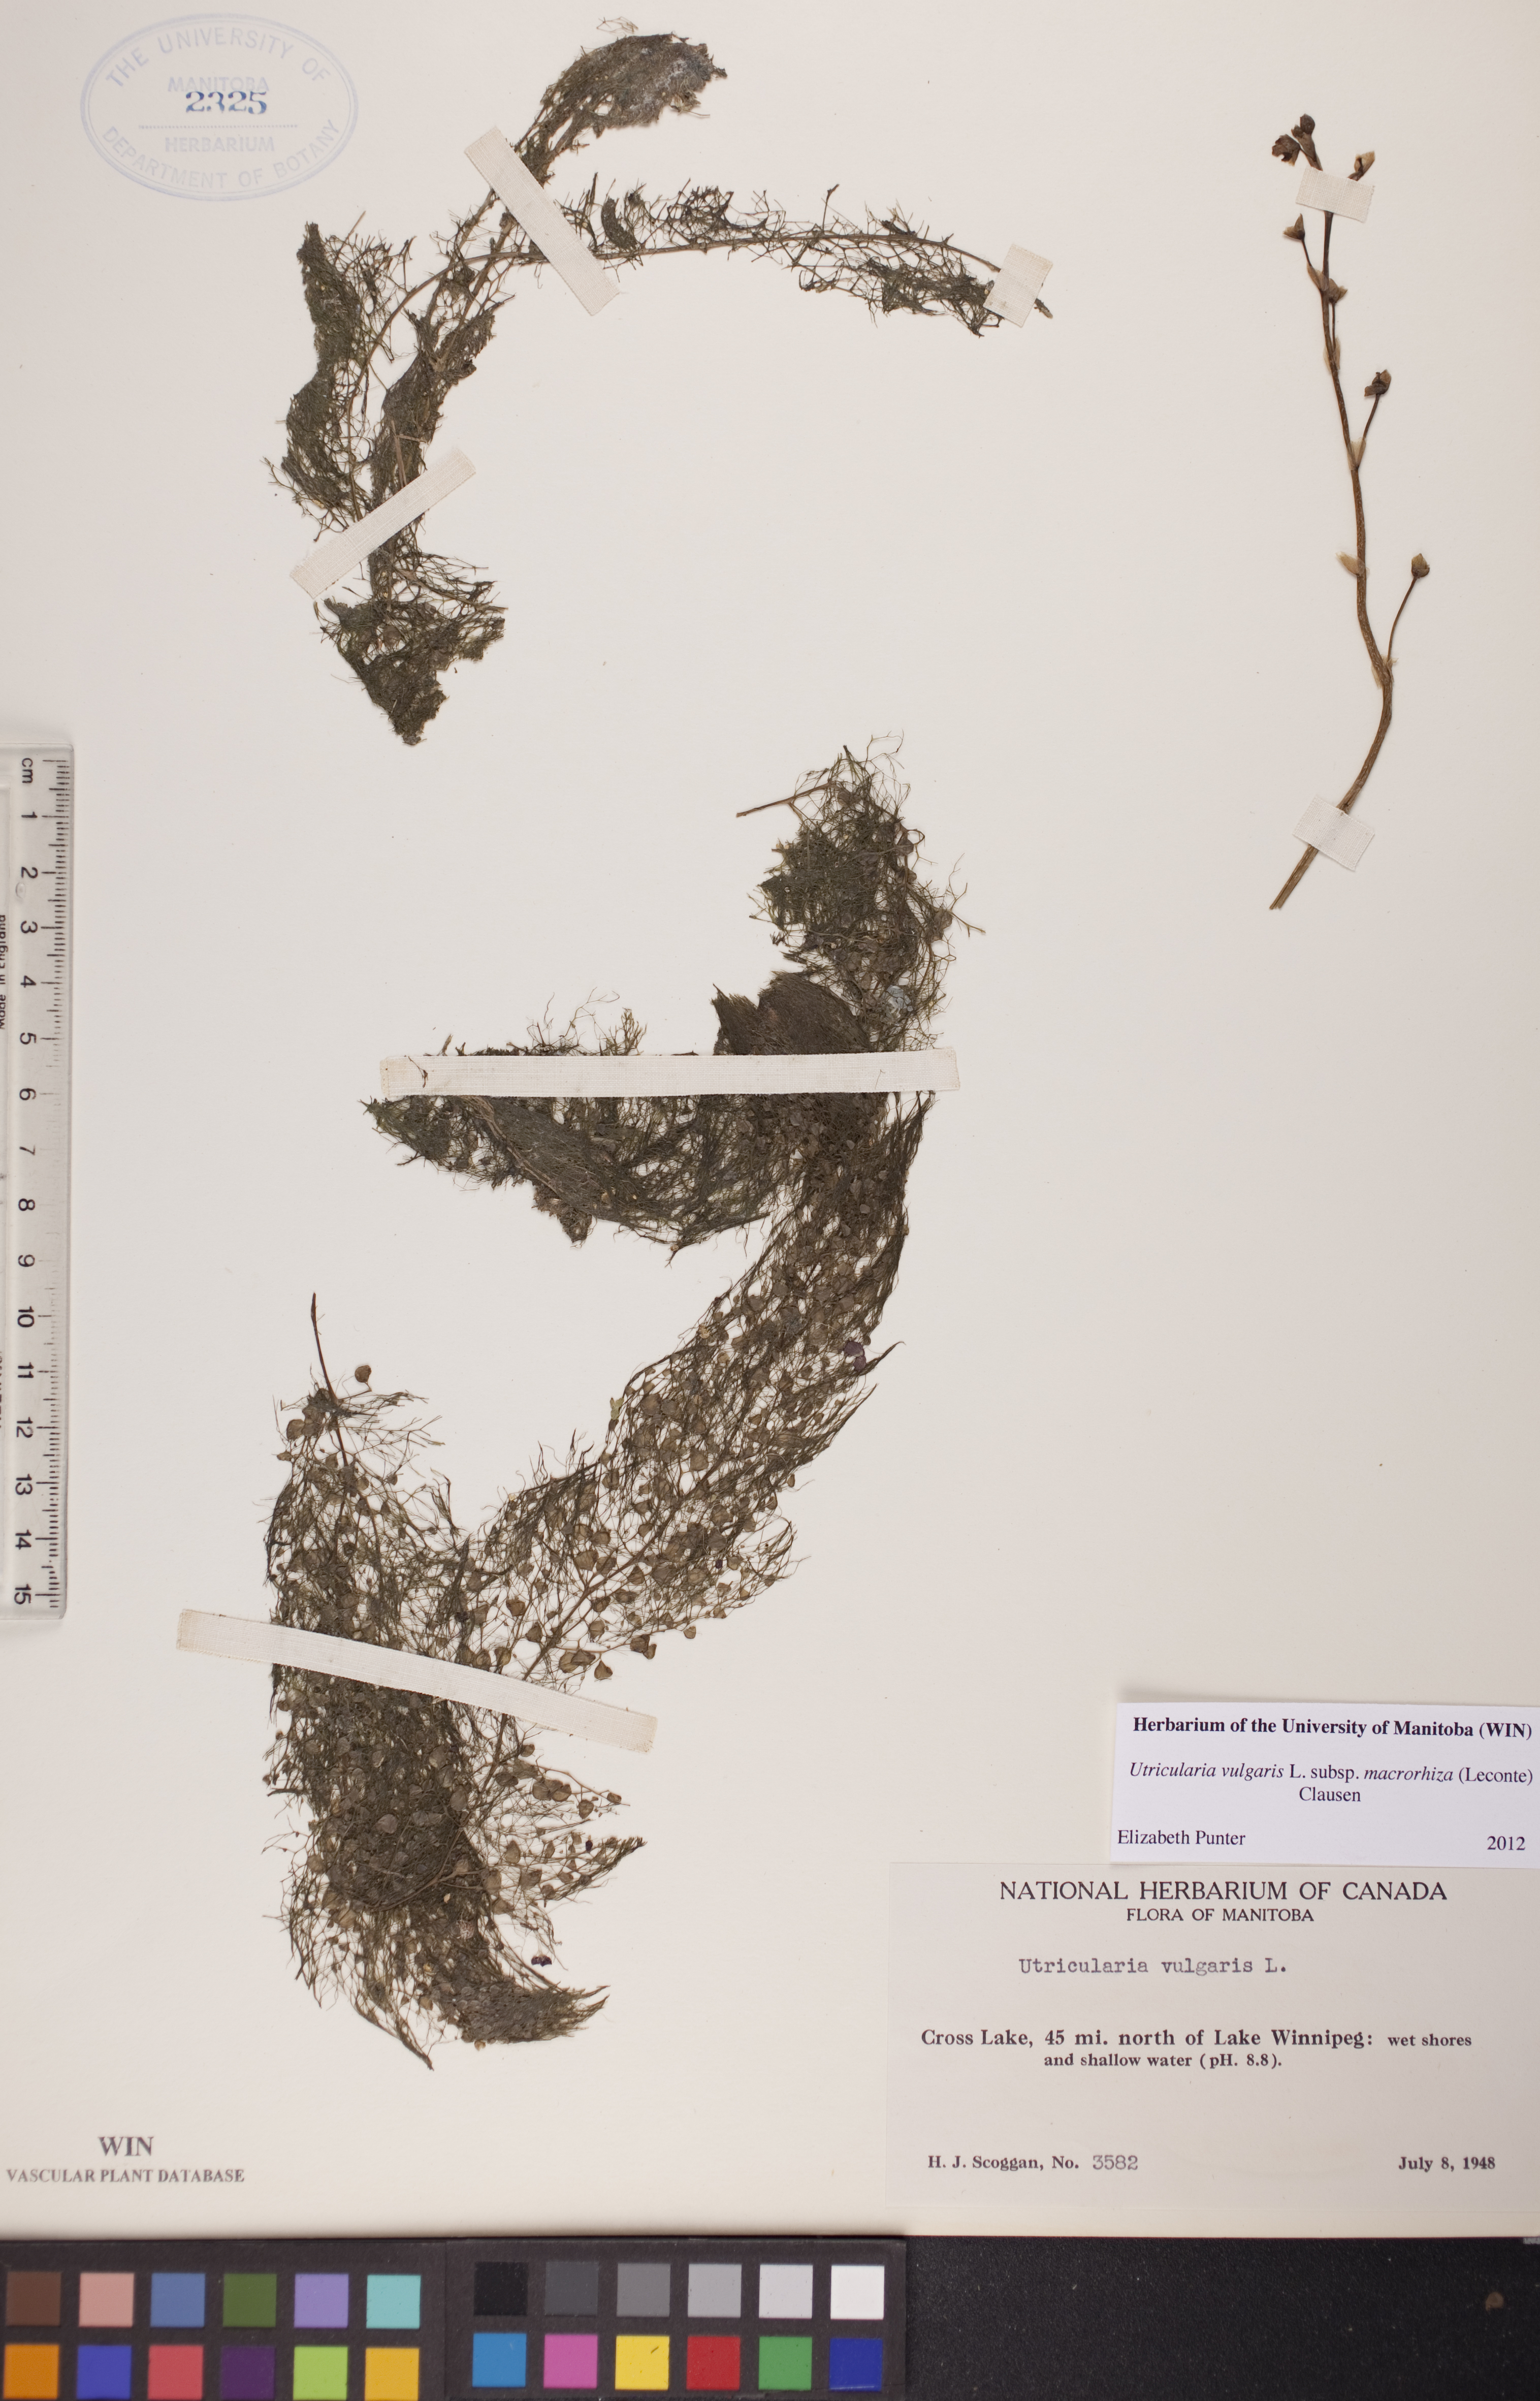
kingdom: Plantae
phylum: Tracheophyta
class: Magnoliopsida
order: Lamiales
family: Lentibulariaceae
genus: Utricularia
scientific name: Utricularia macrorhiza
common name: Common bladderwort
